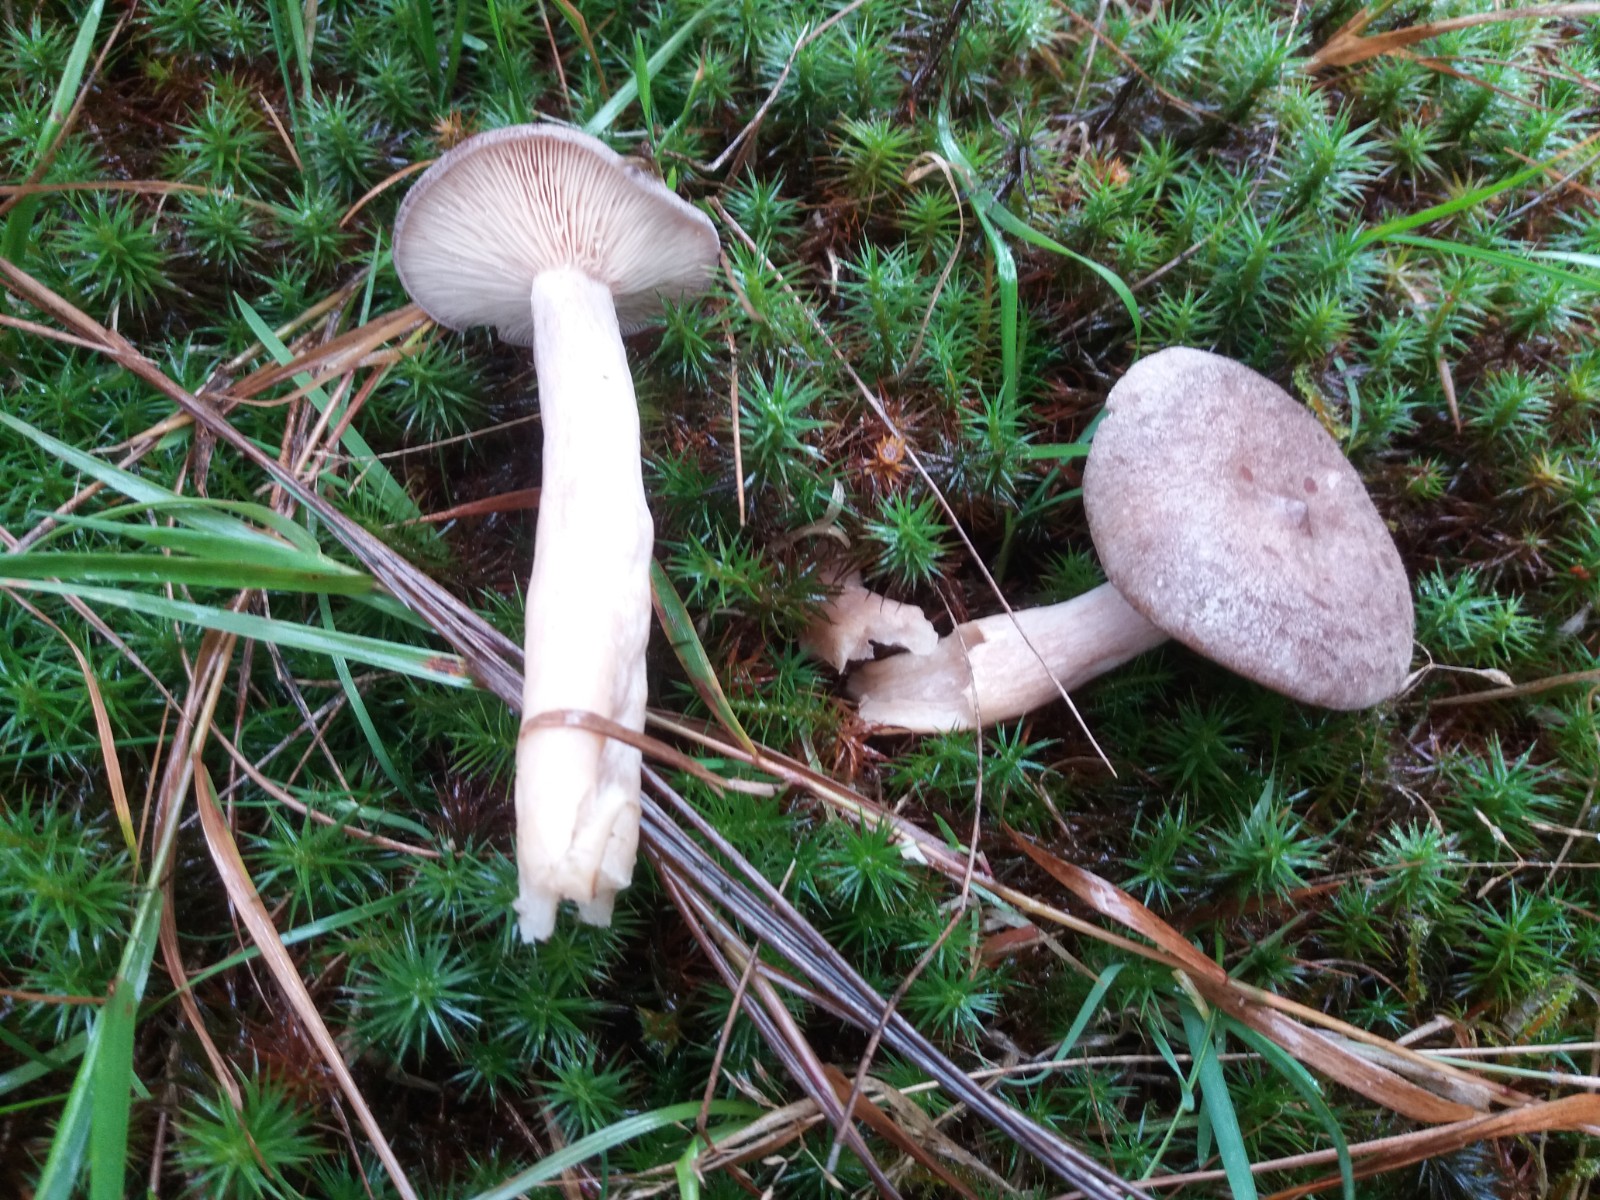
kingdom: Fungi
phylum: Basidiomycota
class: Agaricomycetes
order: Russulales
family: Russulaceae
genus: Lactarius
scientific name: Lactarius mammosus
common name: kokosbrun mælkehat
